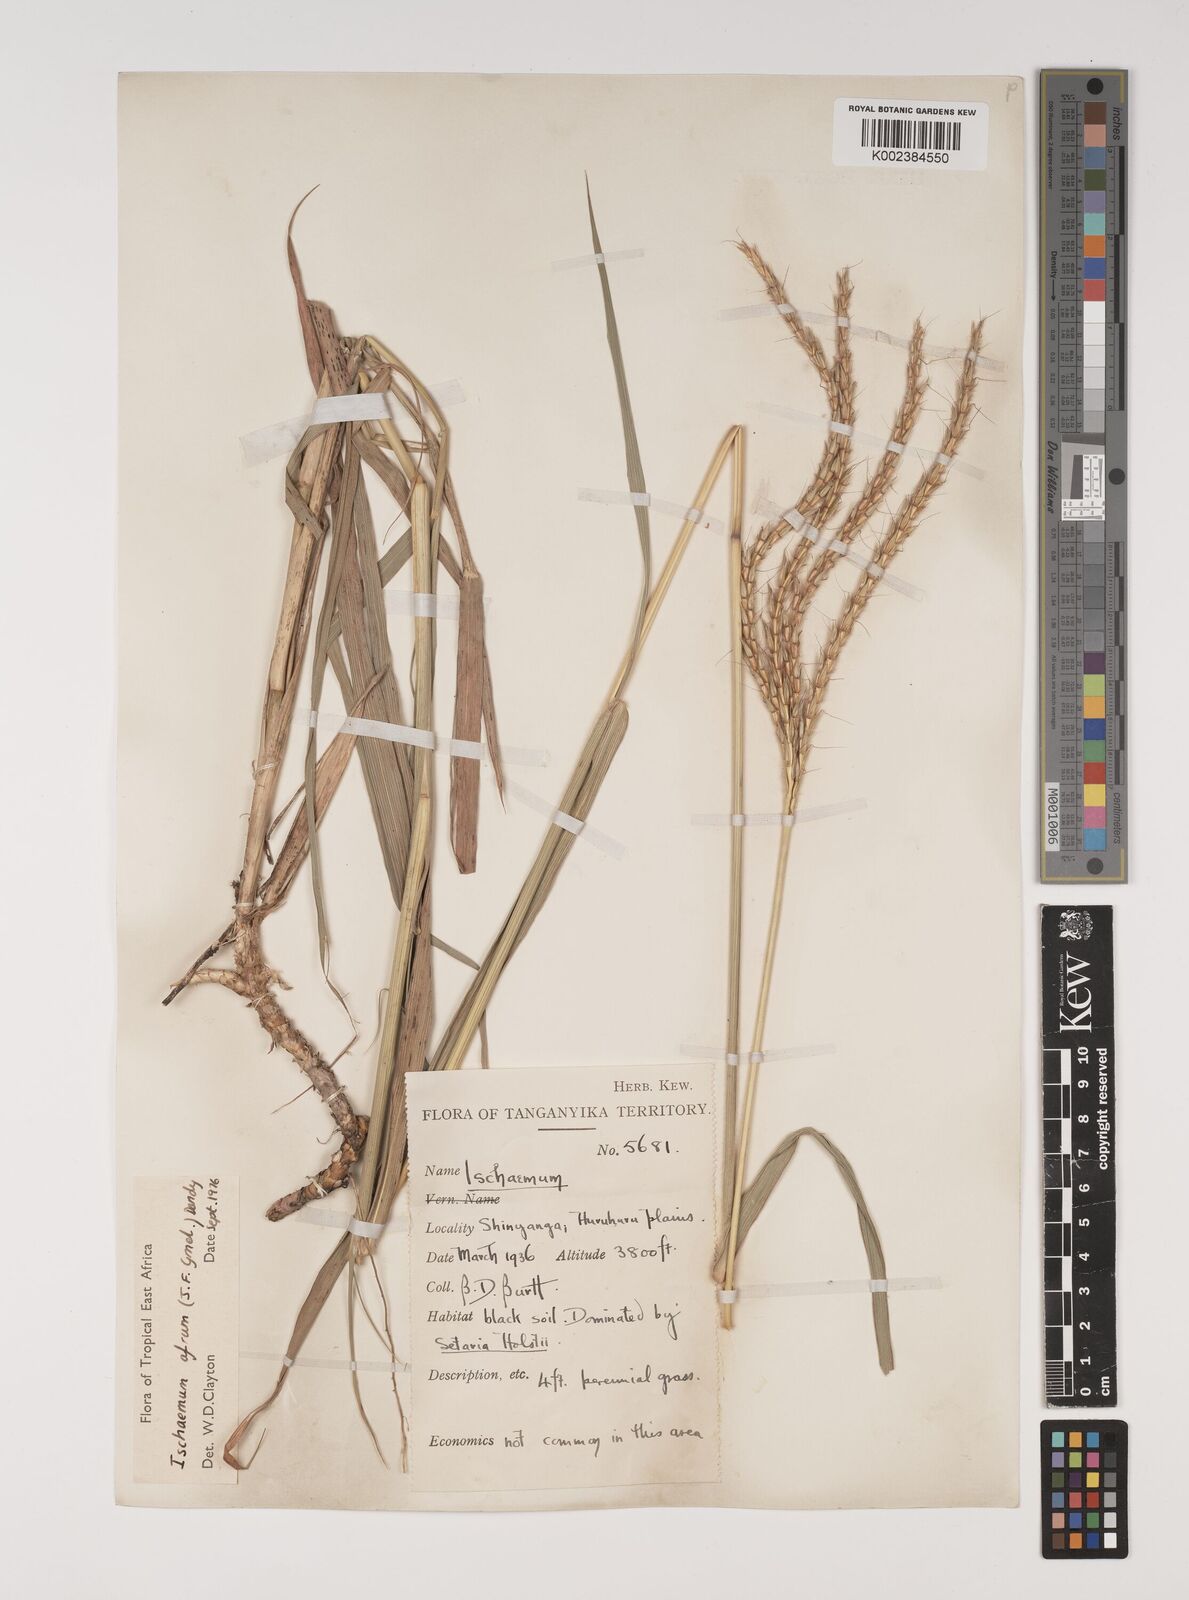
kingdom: Plantae
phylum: Tracheophyta
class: Liliopsida
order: Poales
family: Poaceae
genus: Ischaemum
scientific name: Ischaemum afrum
